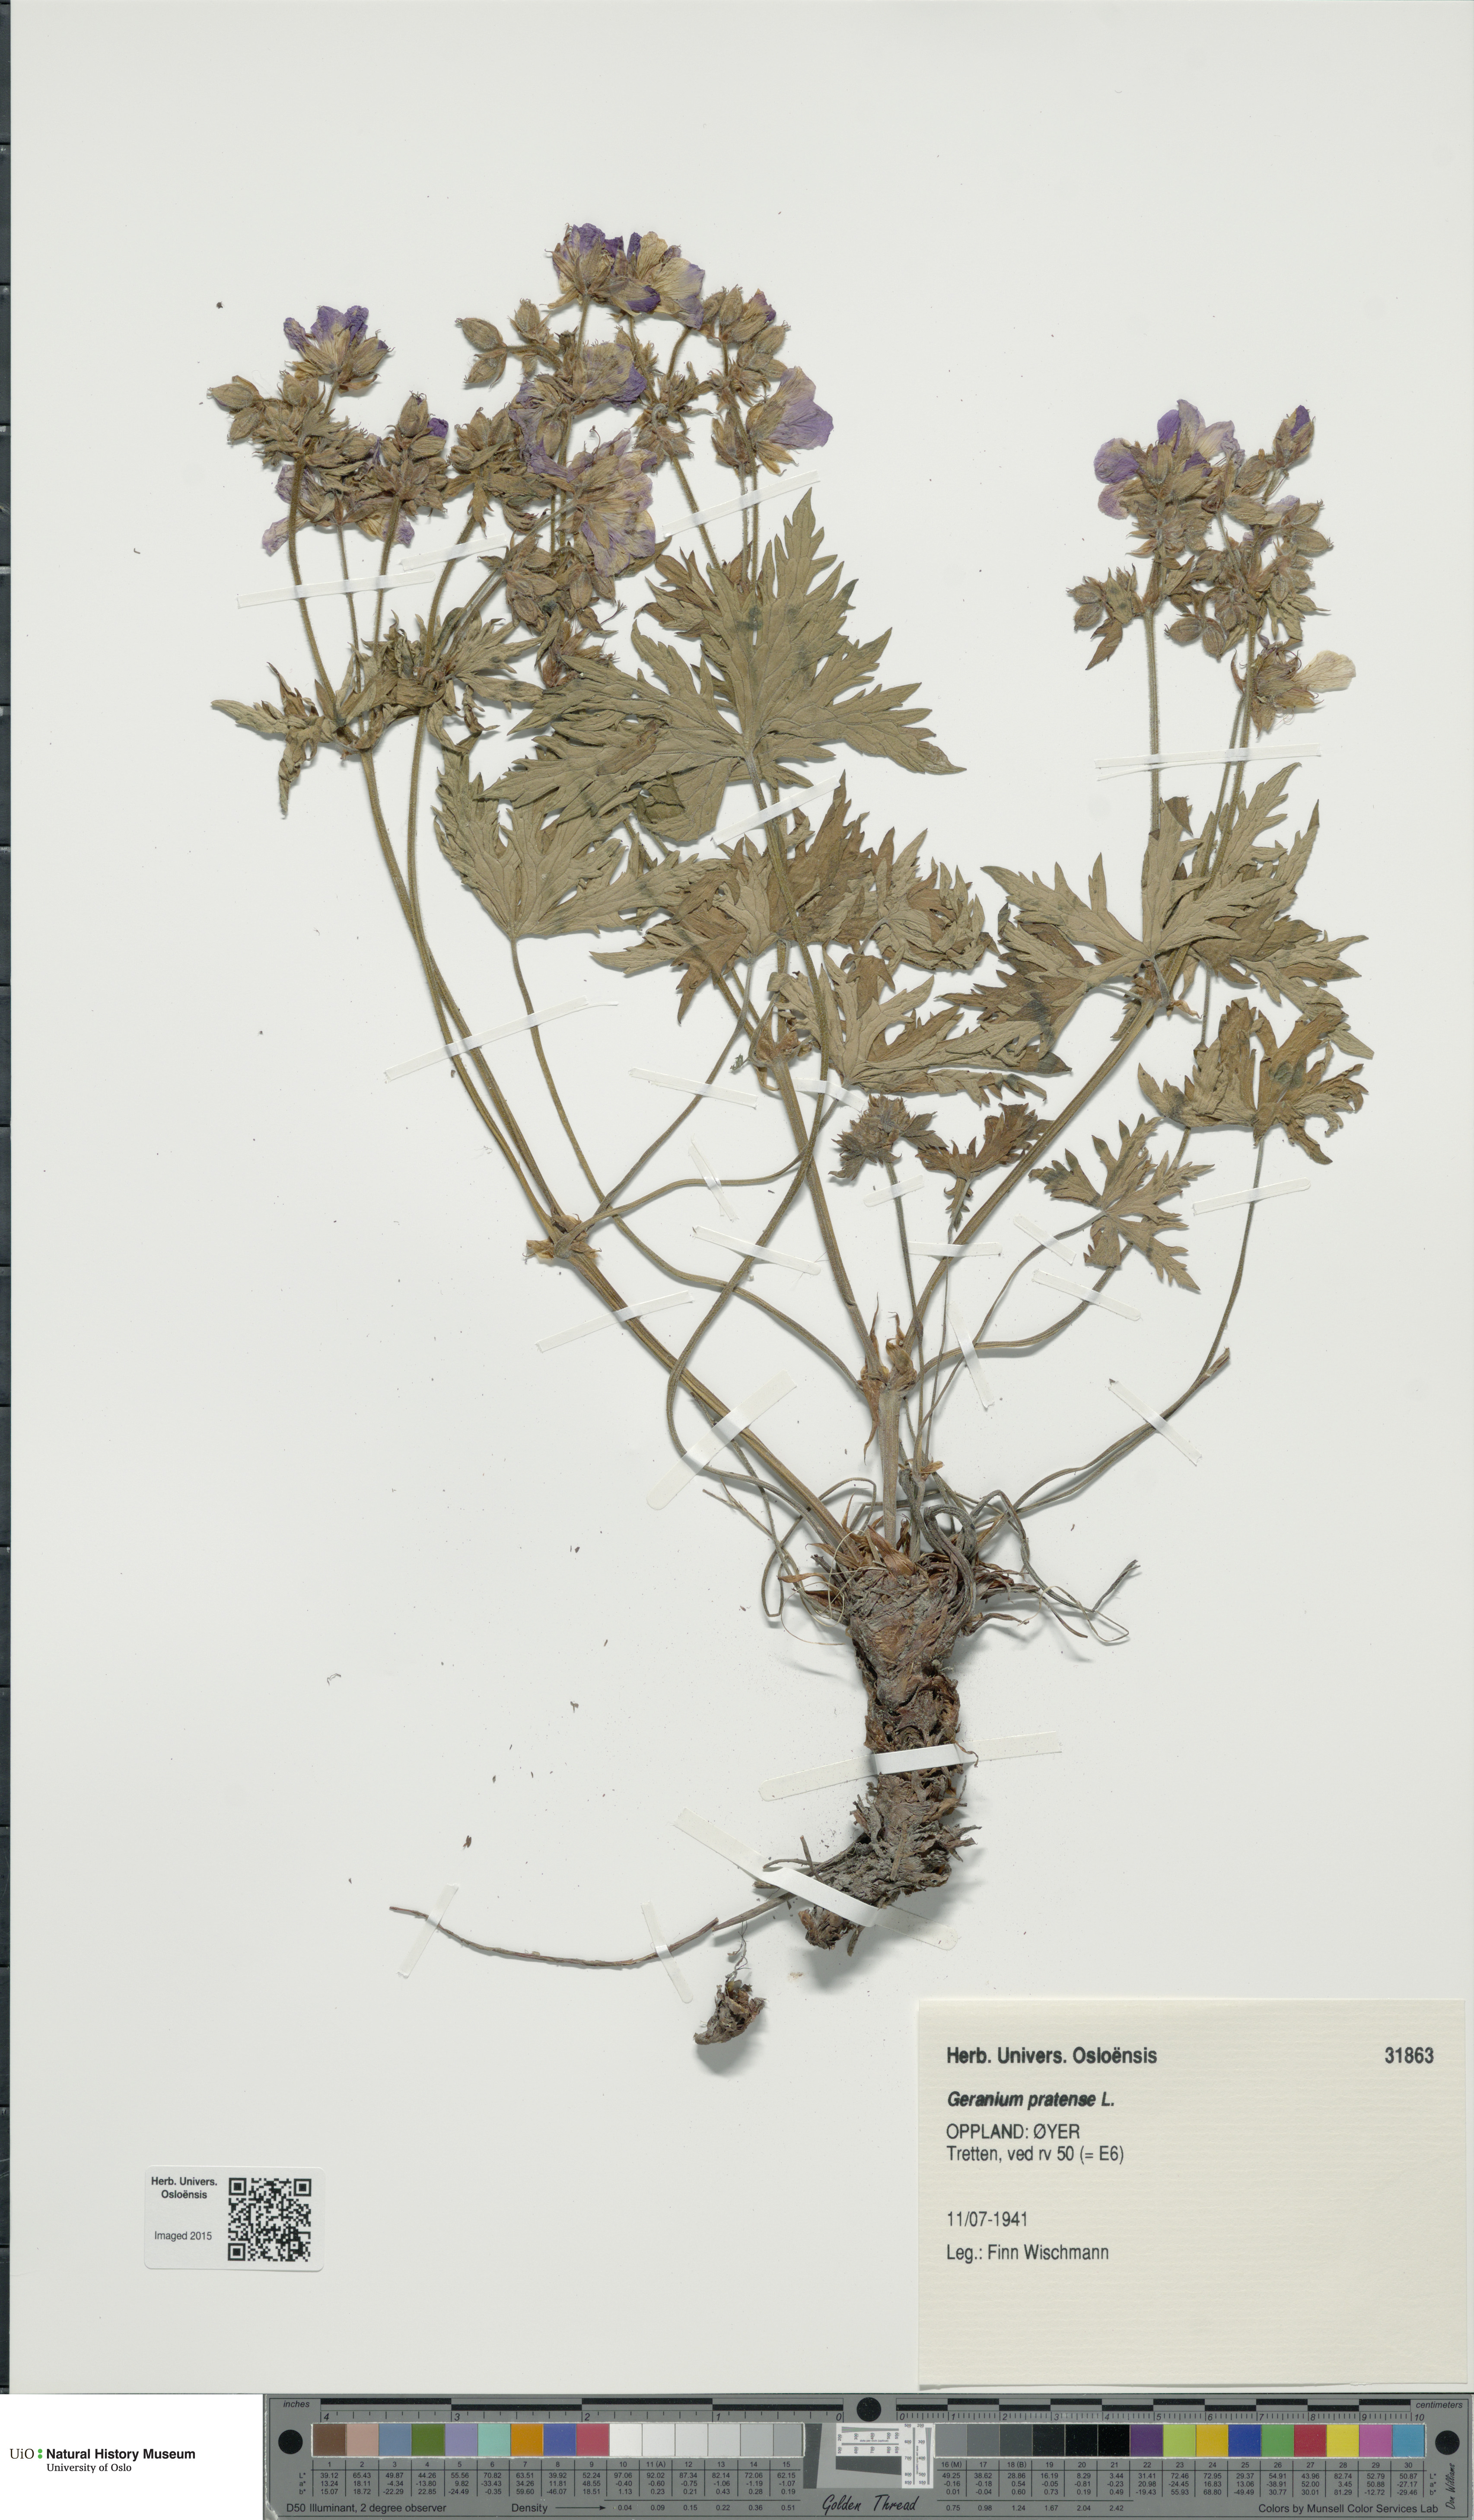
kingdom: Plantae
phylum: Tracheophyta
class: Magnoliopsida
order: Geraniales
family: Geraniaceae
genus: Geranium
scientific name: Geranium pratense
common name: Meadow crane's-bill
